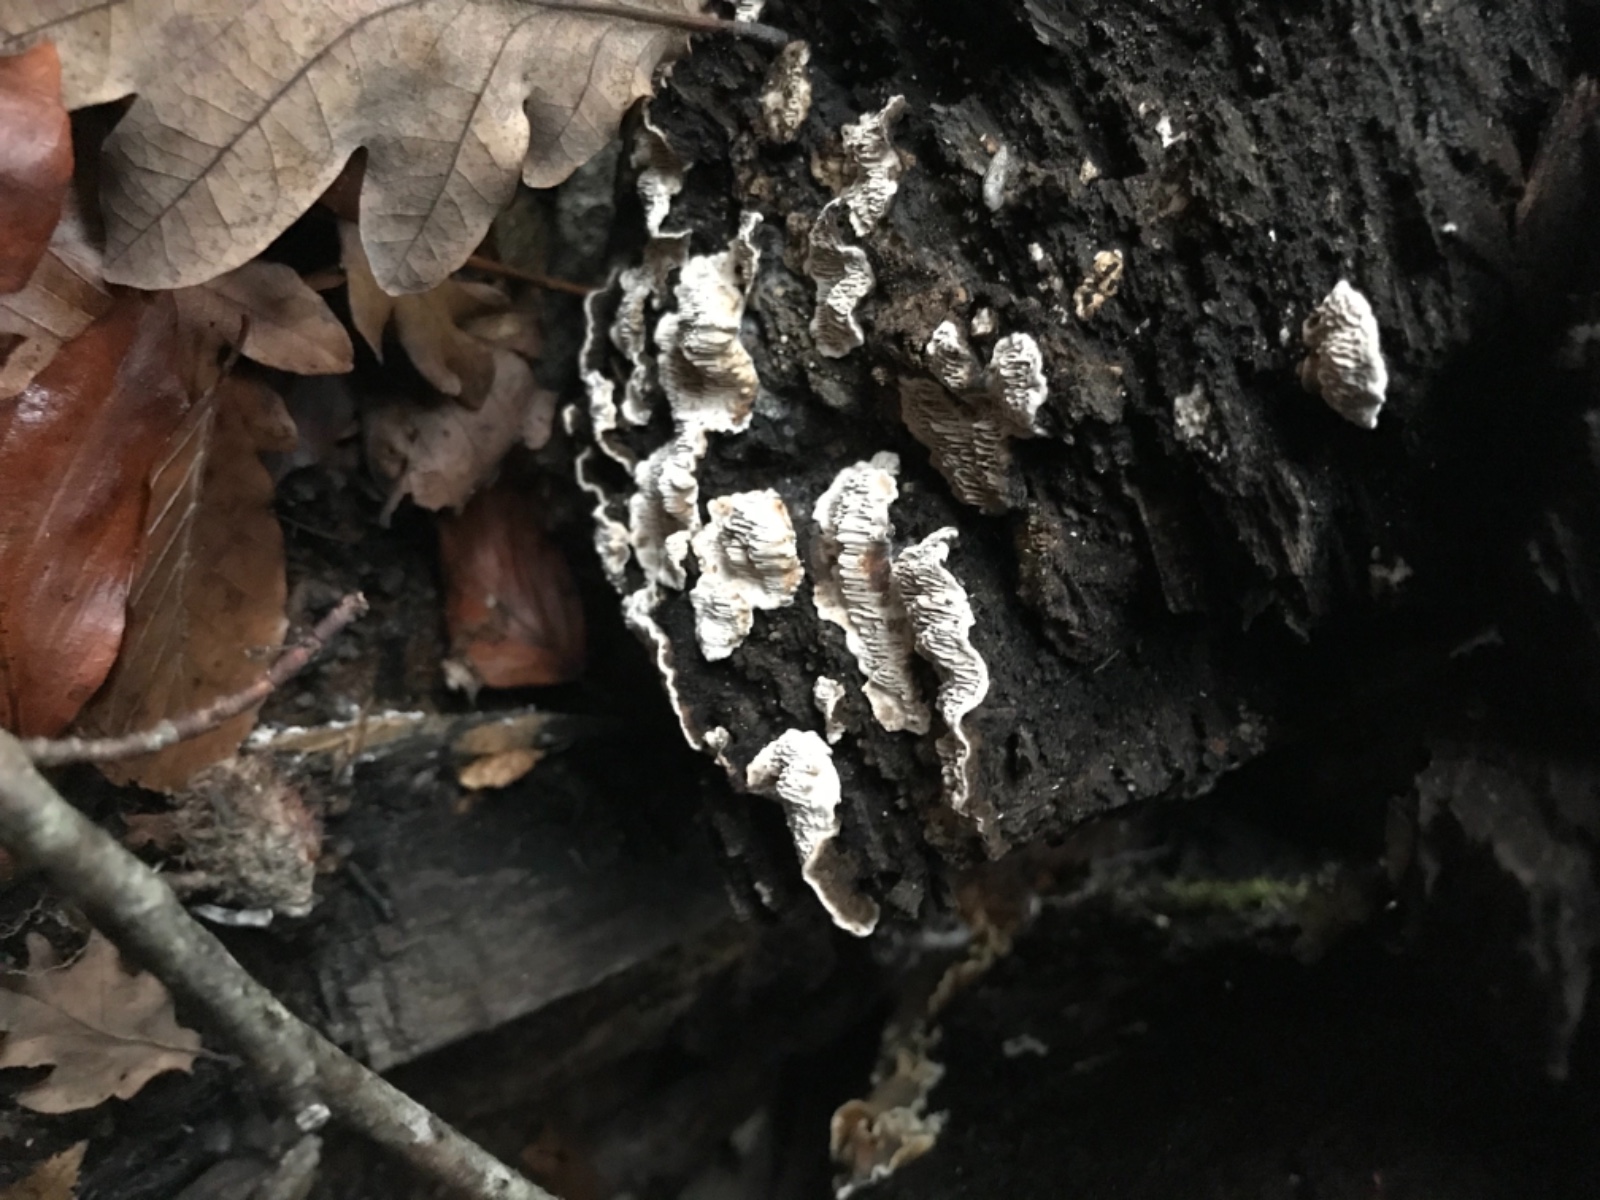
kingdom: Fungi
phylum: Basidiomycota
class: Agaricomycetes
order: Polyporales
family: Polyporaceae
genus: Podofomes
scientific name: Podofomes mollis
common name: blød begporesvamp
